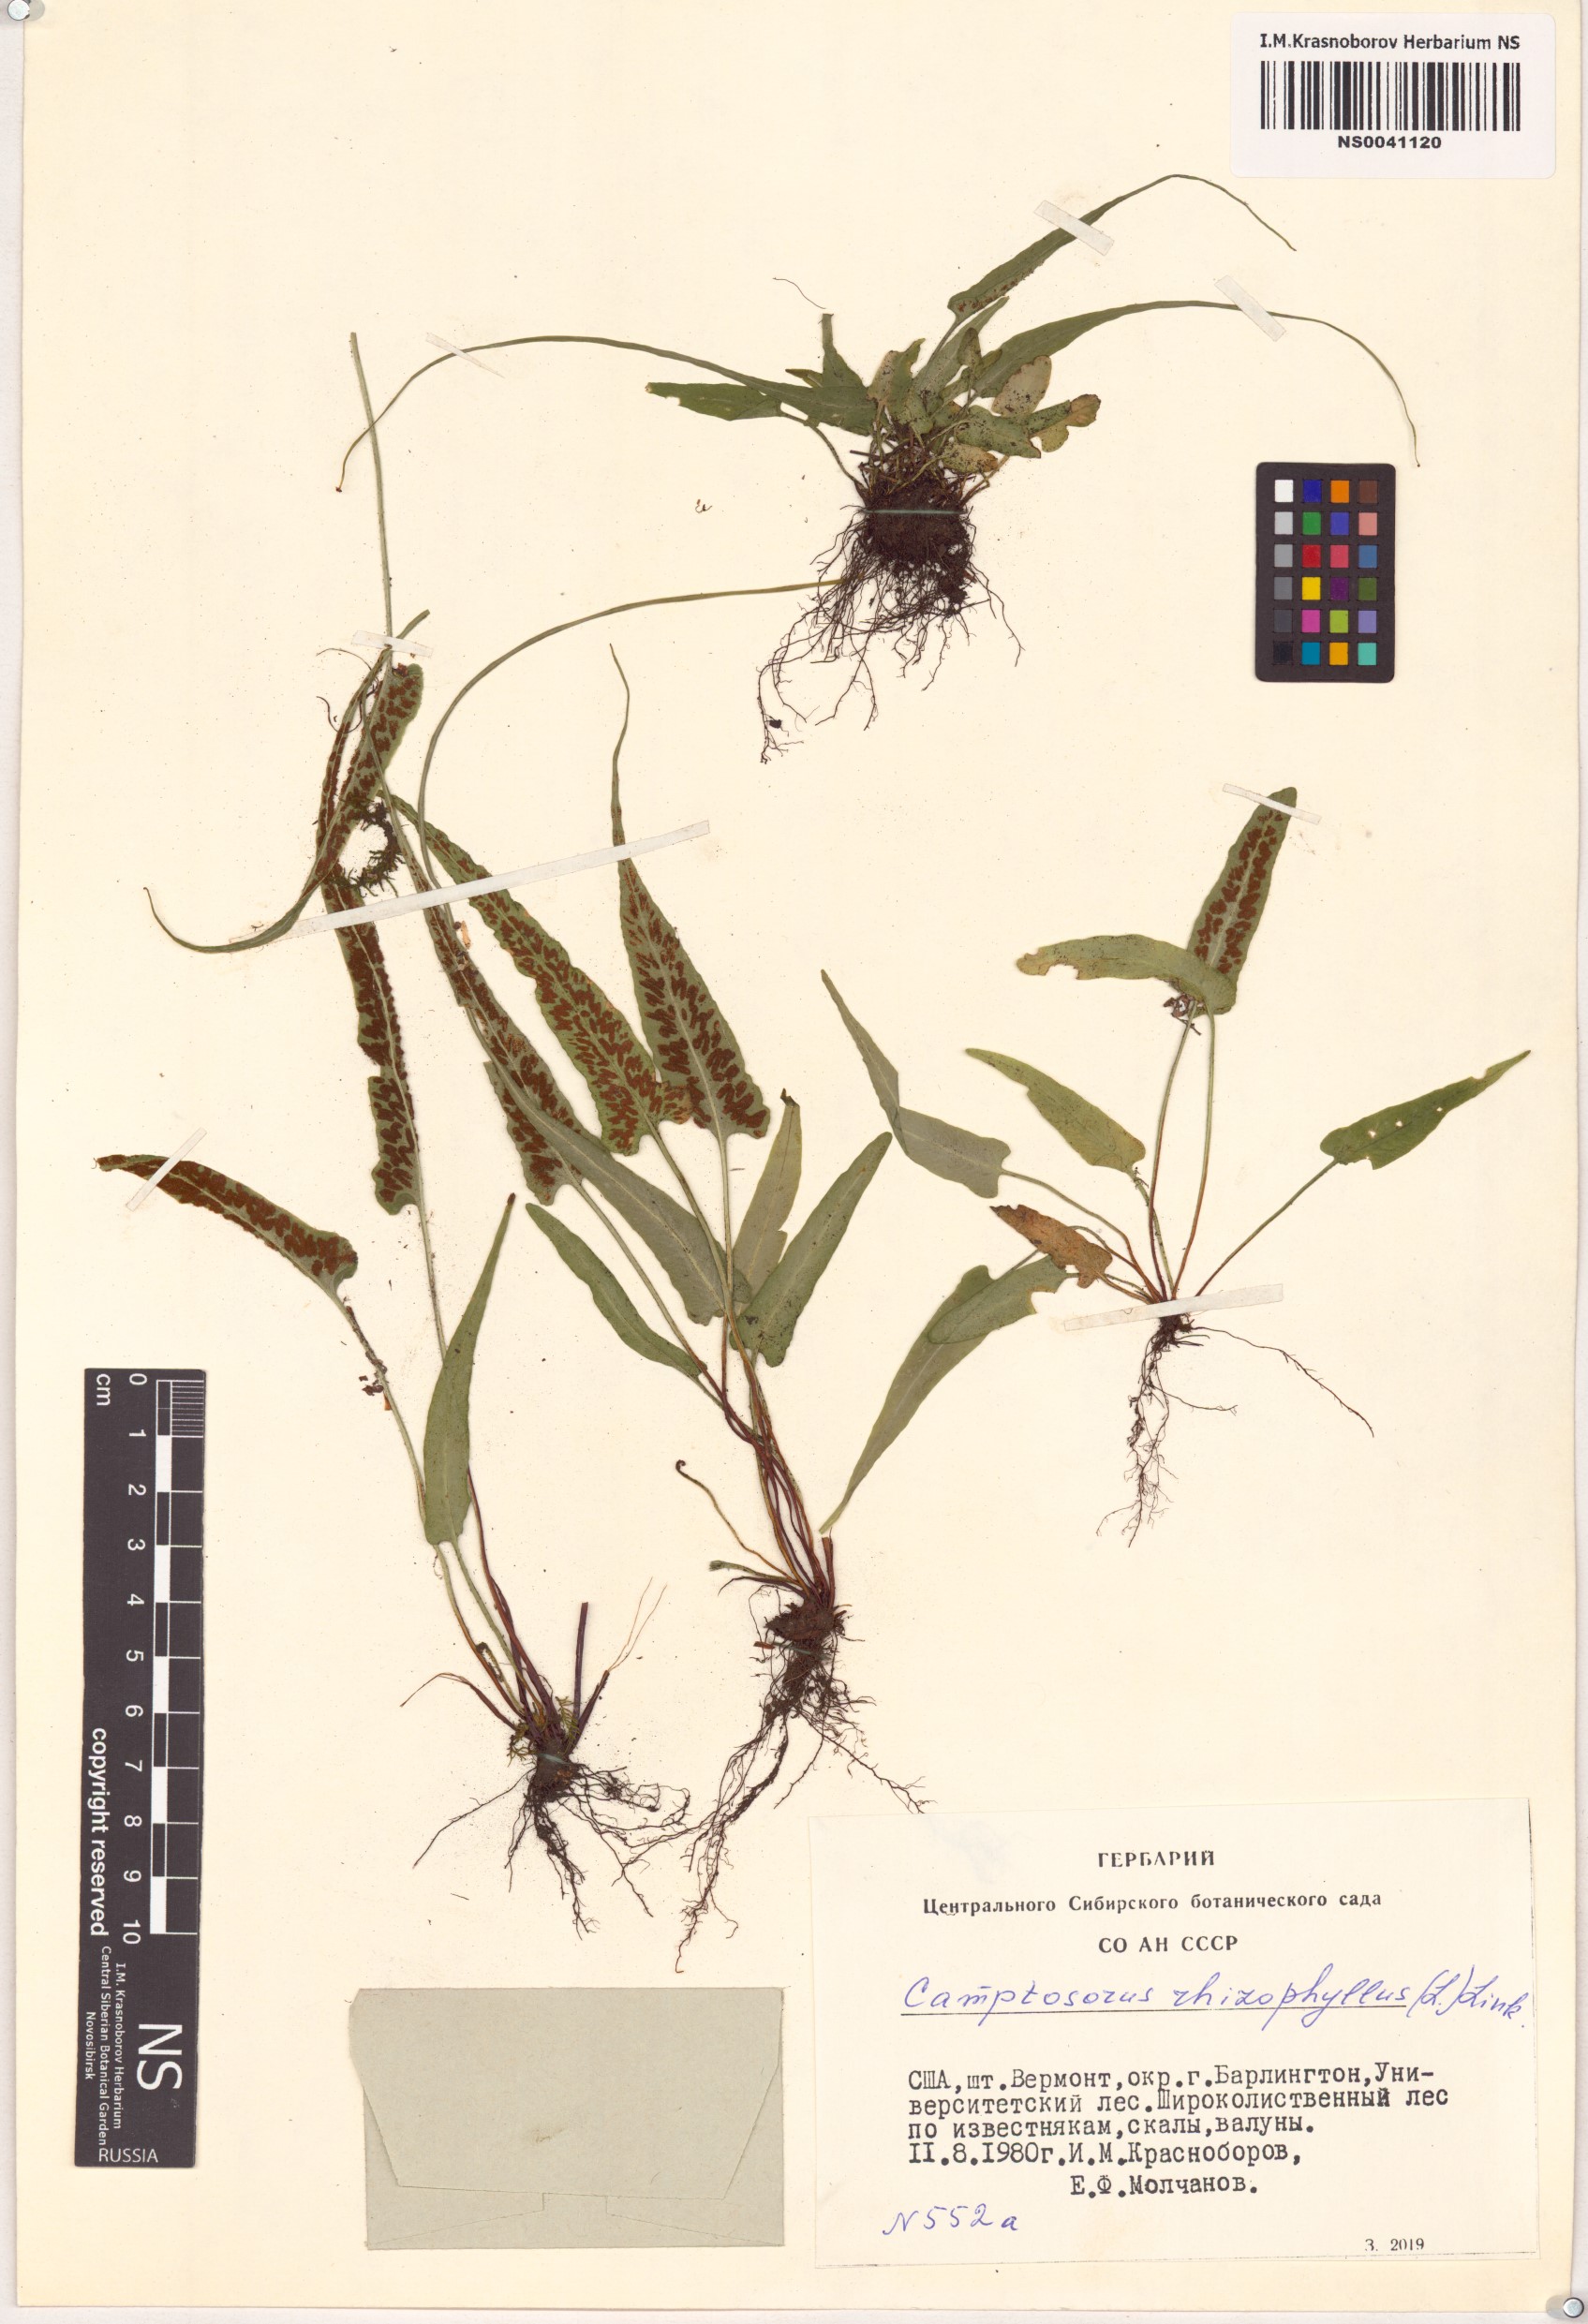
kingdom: Plantae
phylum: Tracheophyta
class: Polypodiopsida
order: Polypodiales
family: Aspleniaceae
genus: Asplenium
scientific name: Asplenium rhizophyllum
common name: Walking fern
